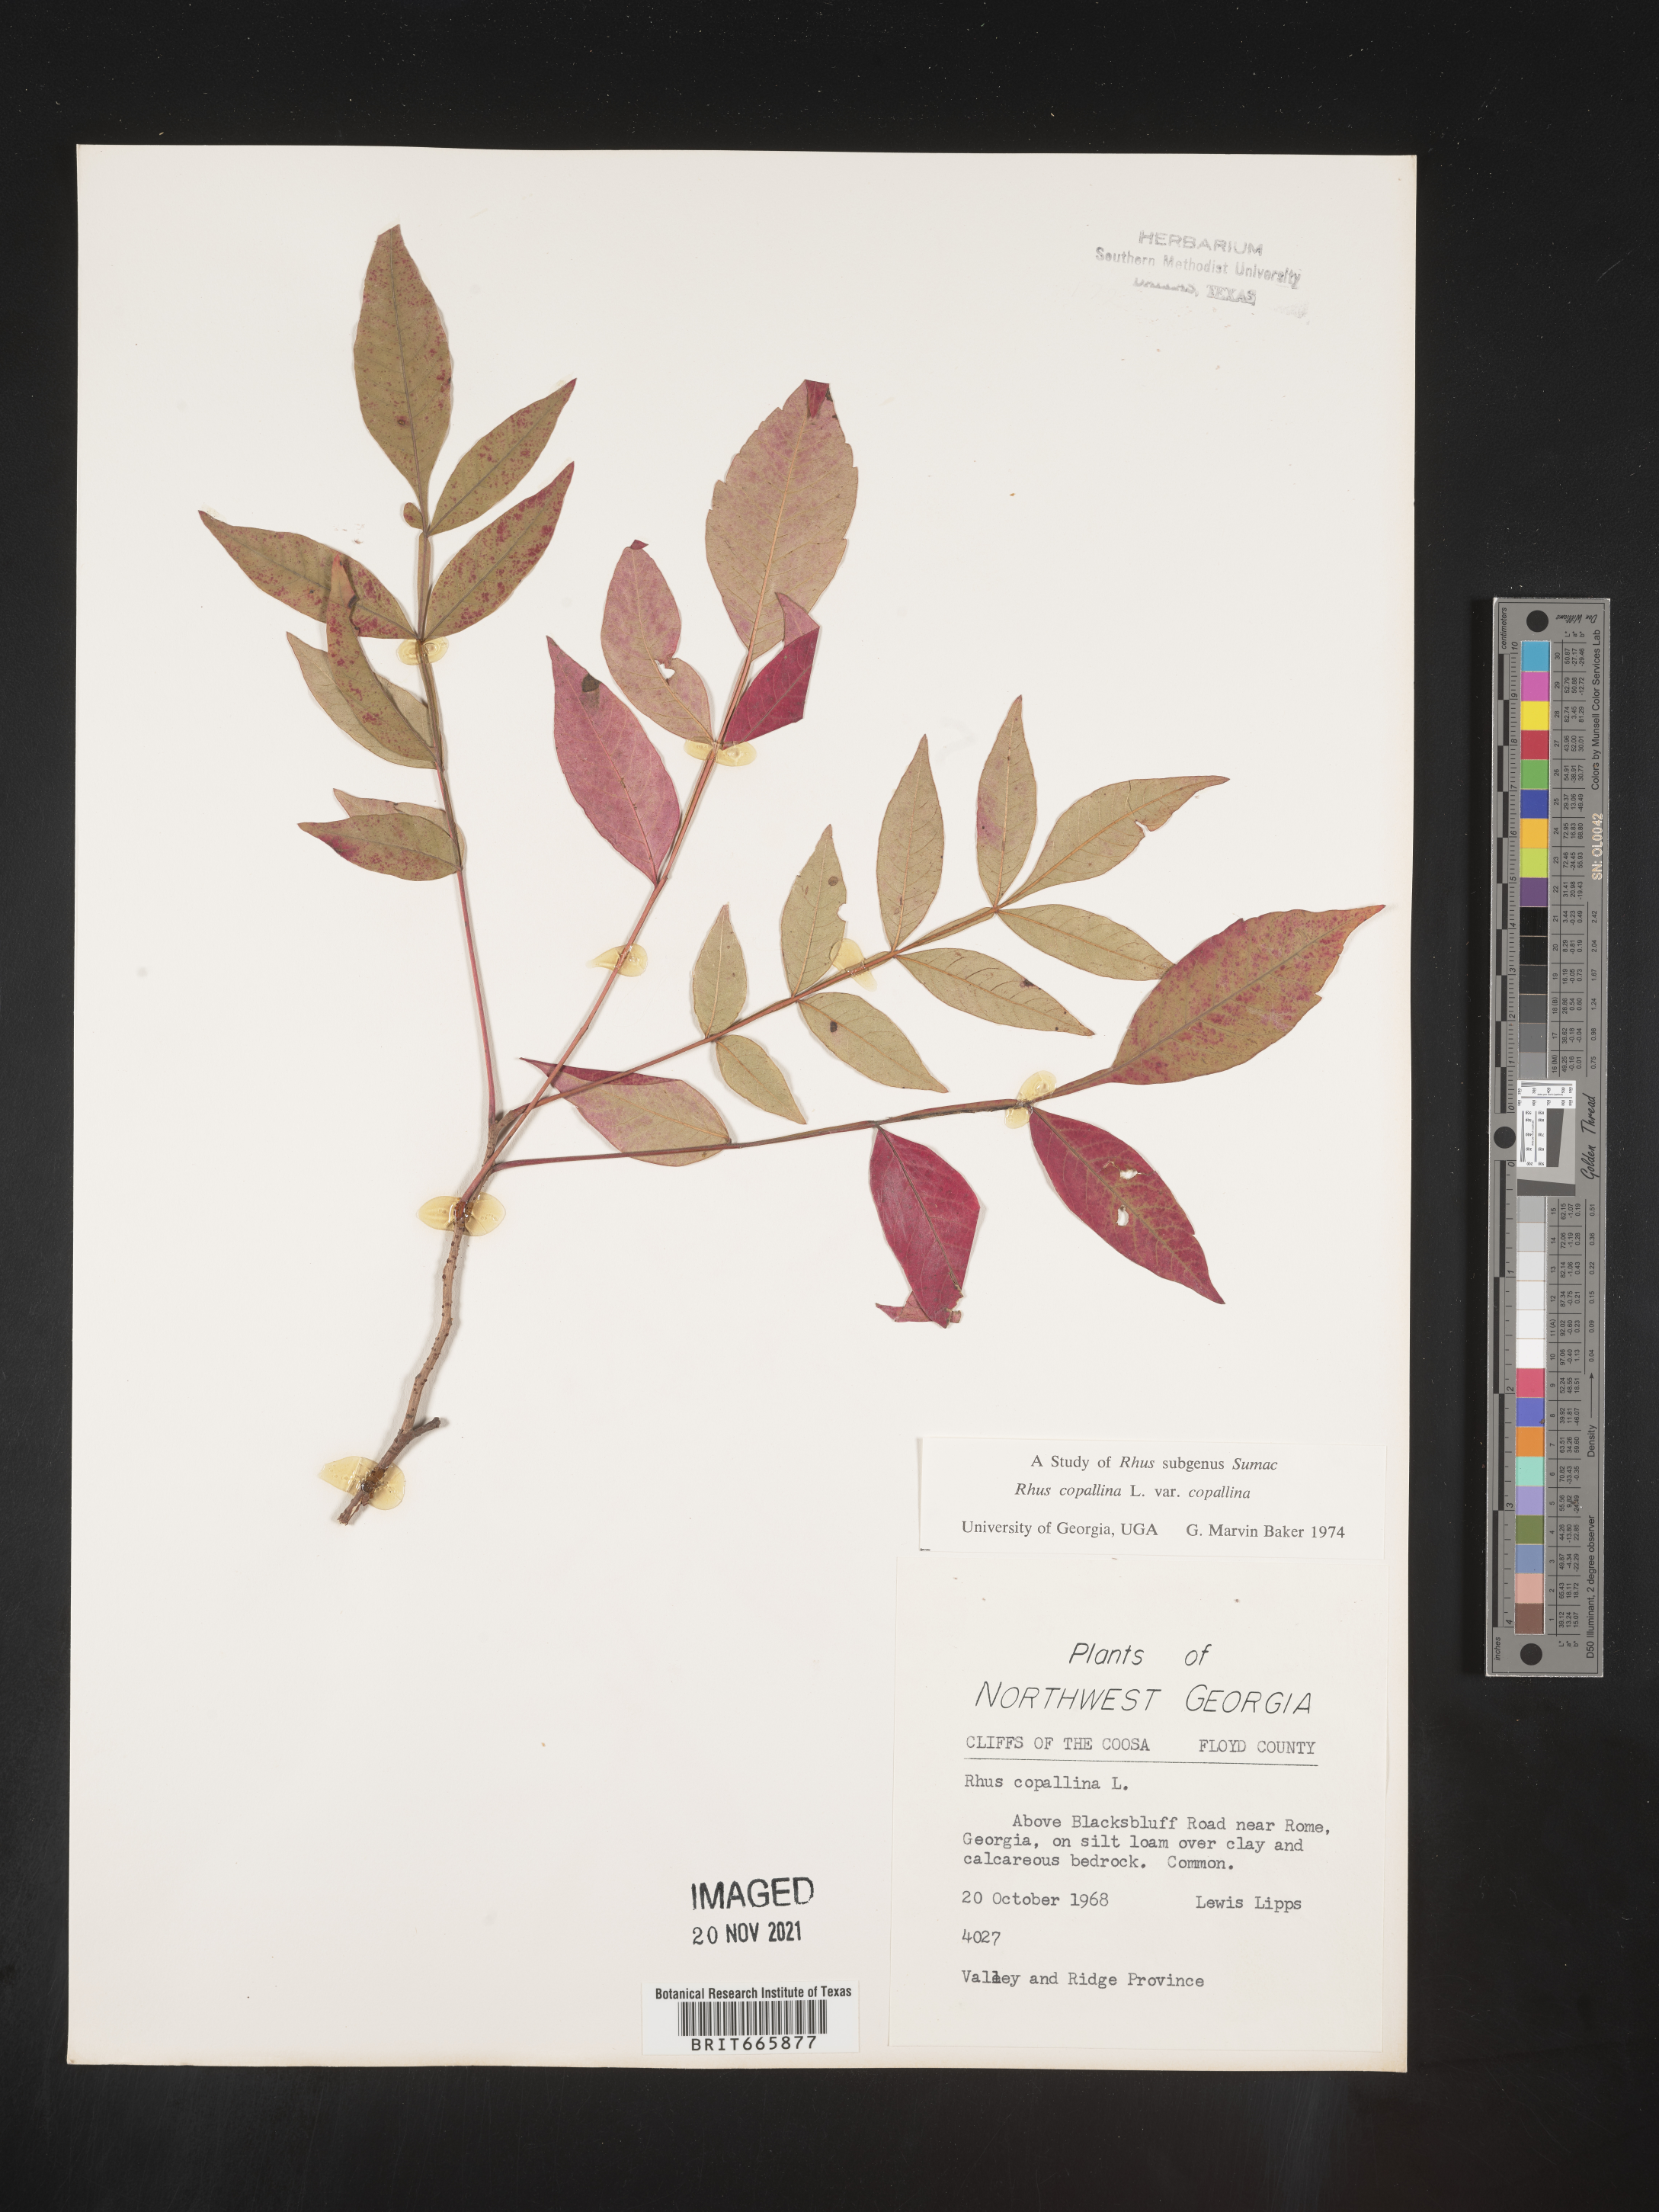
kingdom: Plantae
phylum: Tracheophyta
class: Magnoliopsida
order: Sapindales
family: Anacardiaceae
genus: Rhus
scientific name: Rhus copallina
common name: Shining sumac
